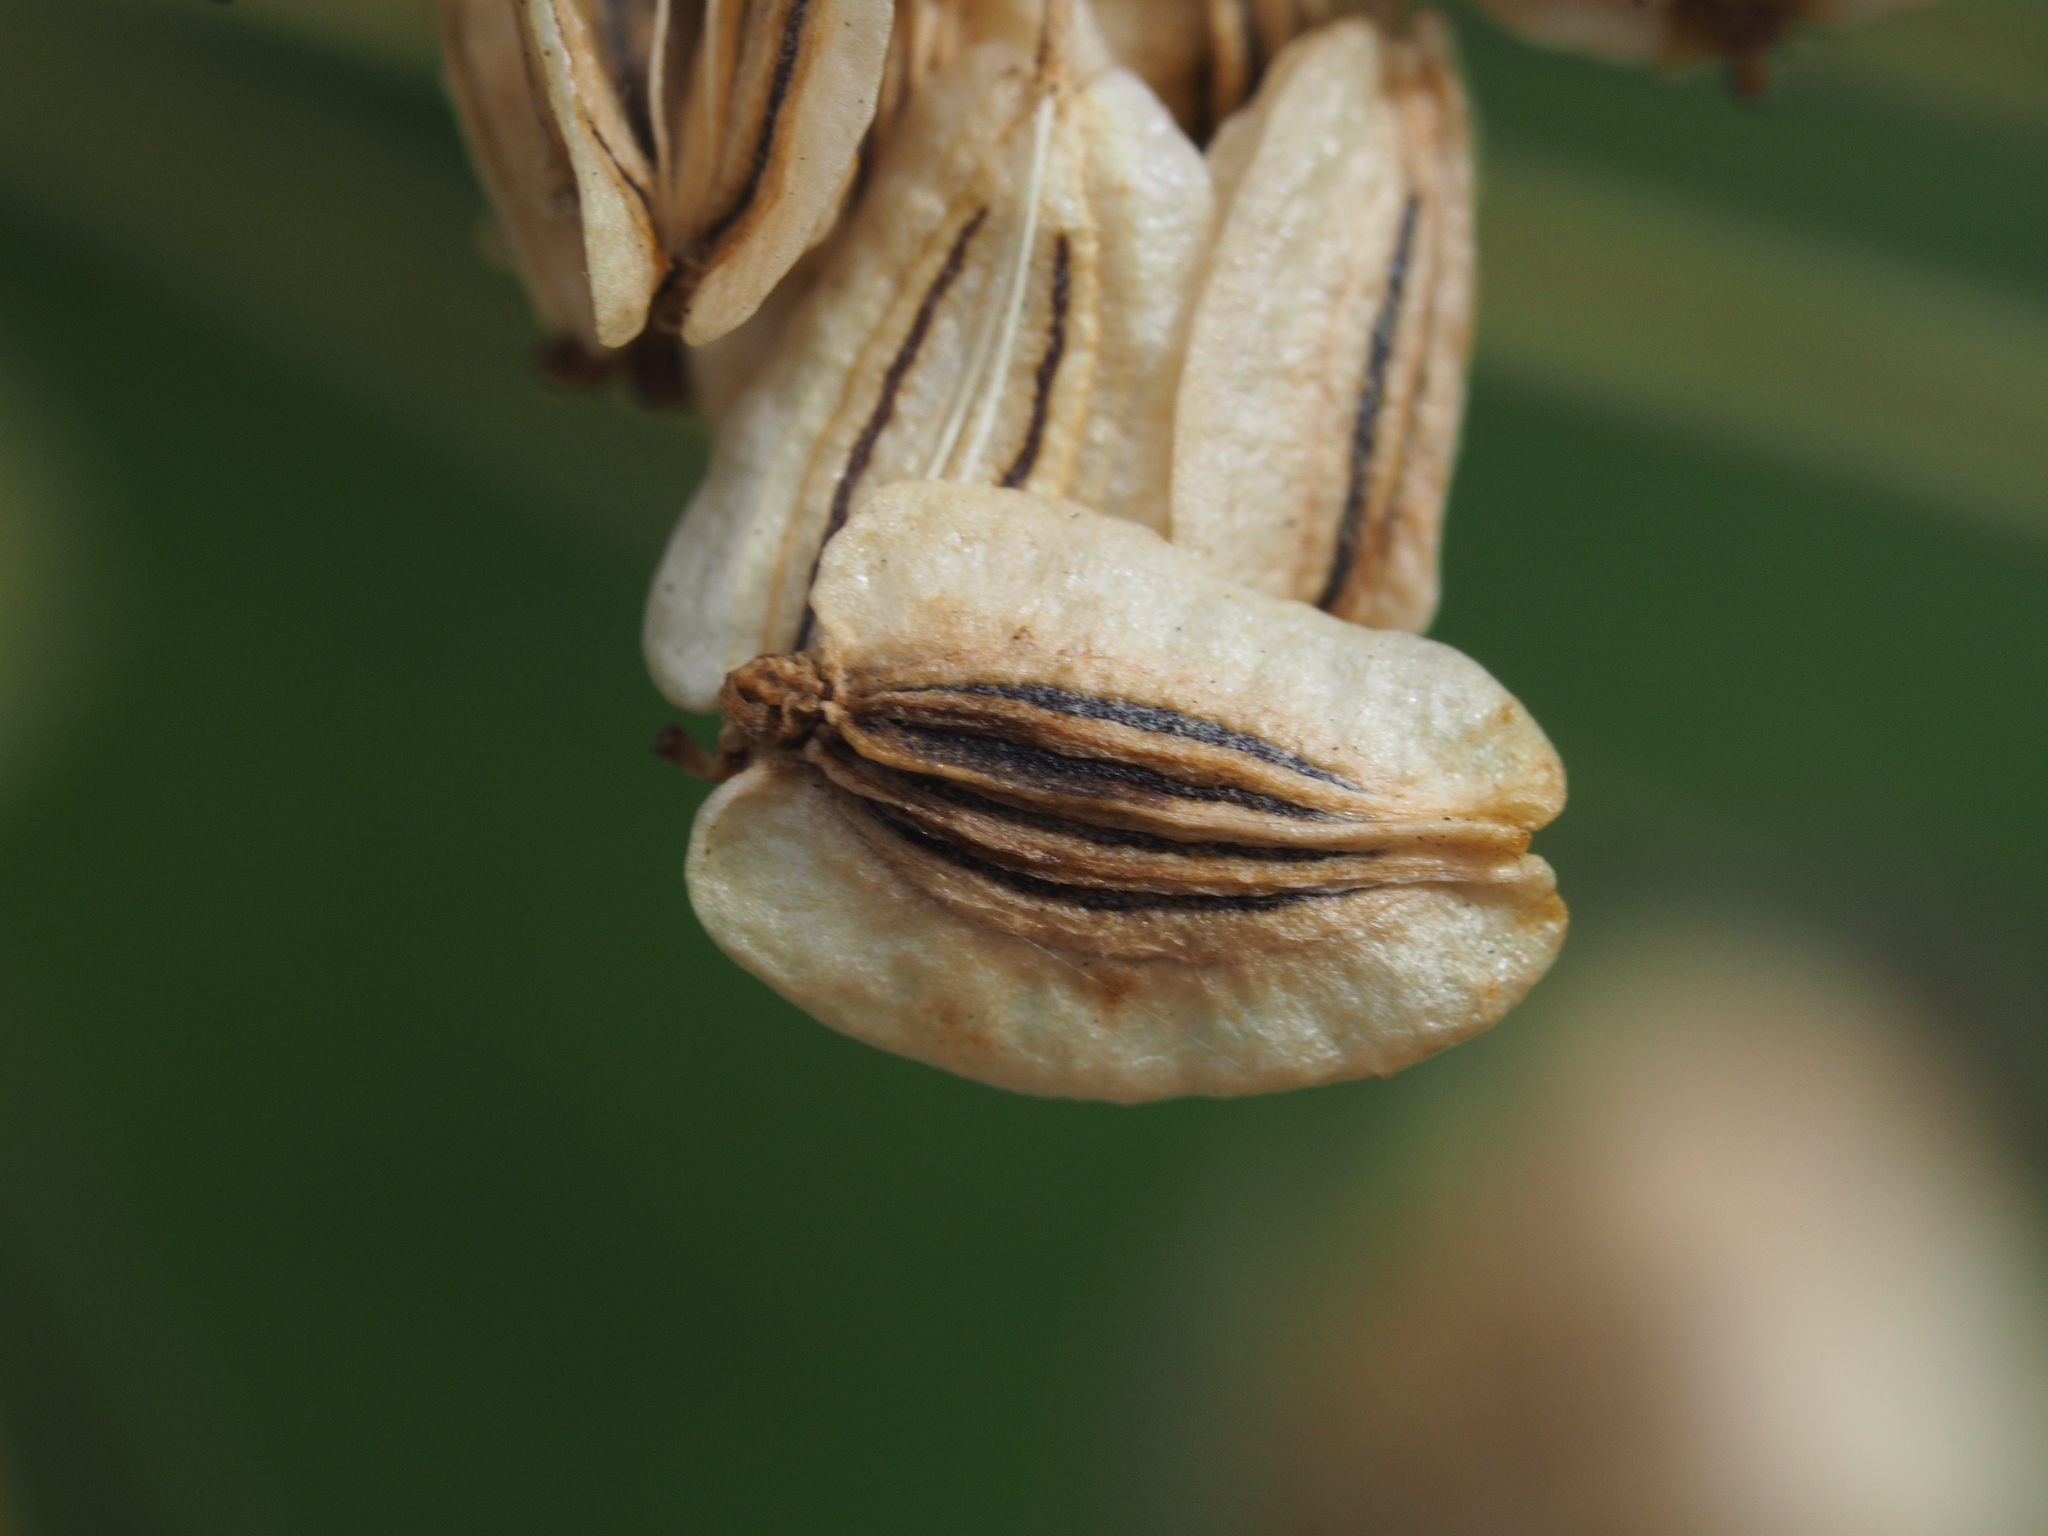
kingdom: Plantae
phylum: Tracheophyta
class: Magnoliopsida
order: Apiales
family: Apiaceae
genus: Angelica
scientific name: Angelica dahurica
